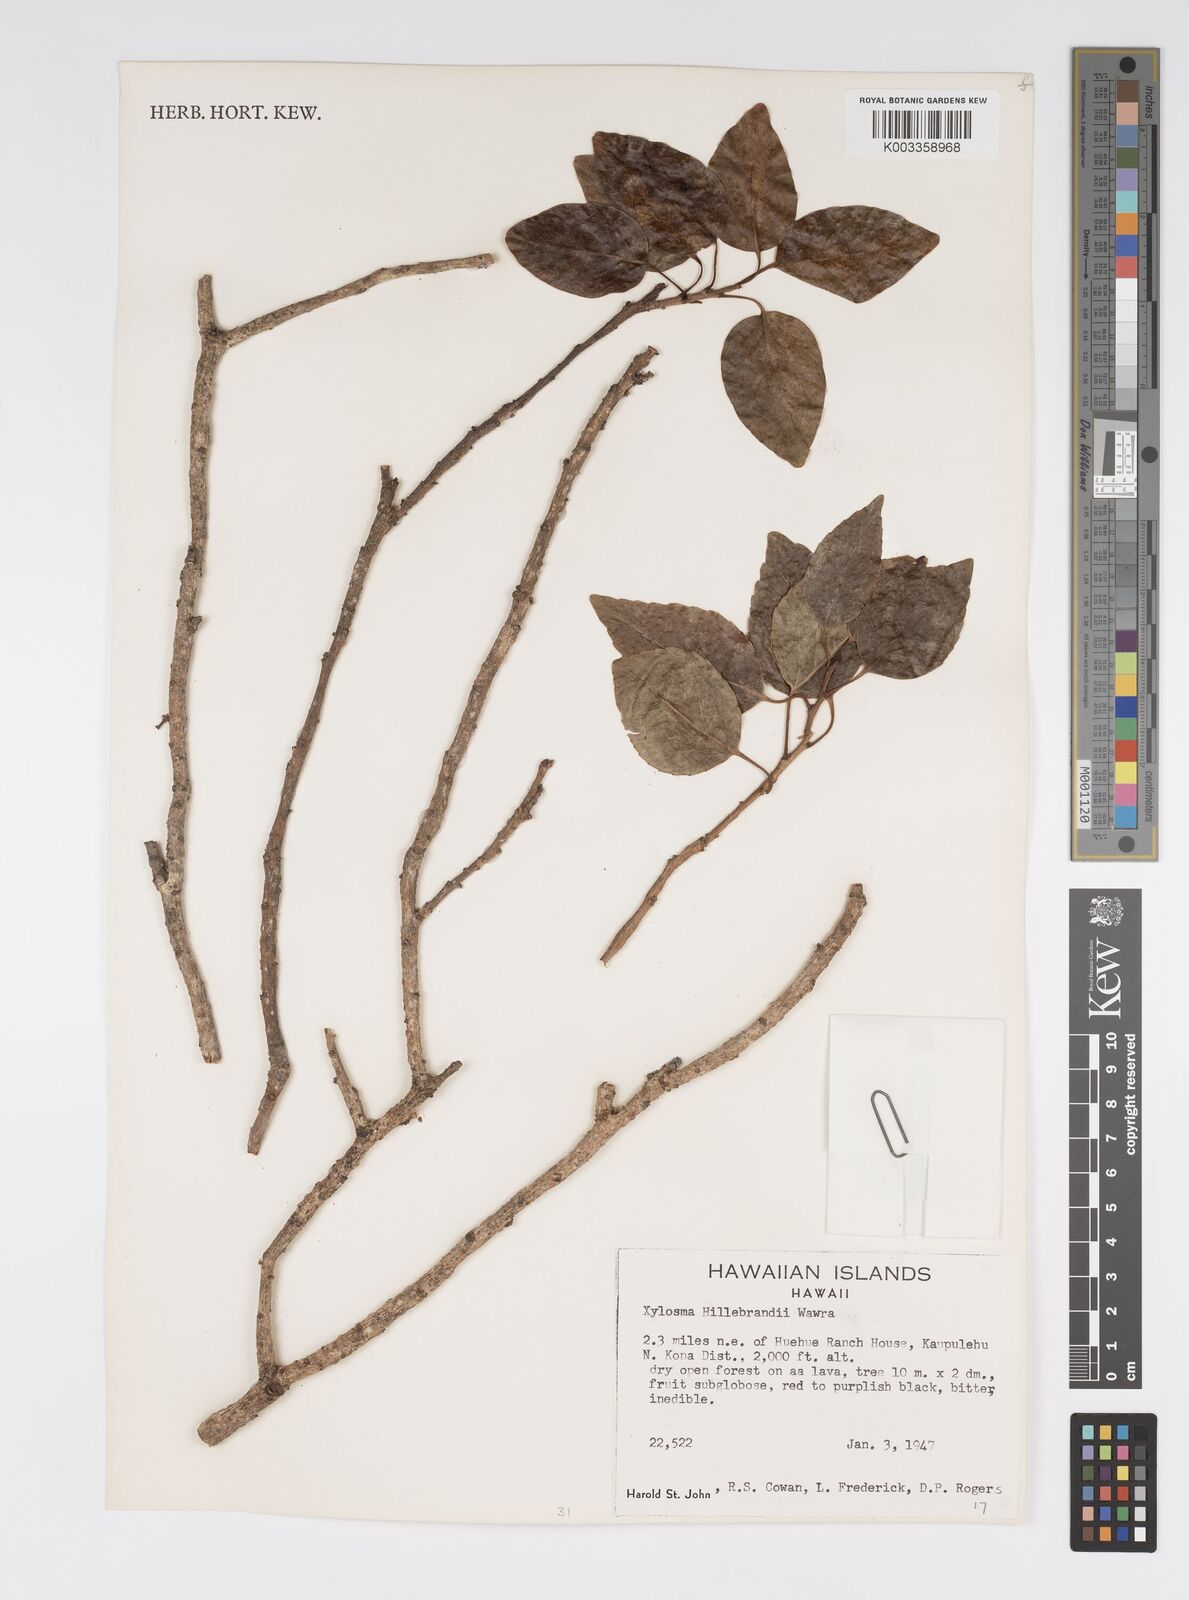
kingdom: Plantae
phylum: Tracheophyta
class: Magnoliopsida
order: Malpighiales
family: Salicaceae
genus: Xylosma
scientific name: Xylosma hawaiense
